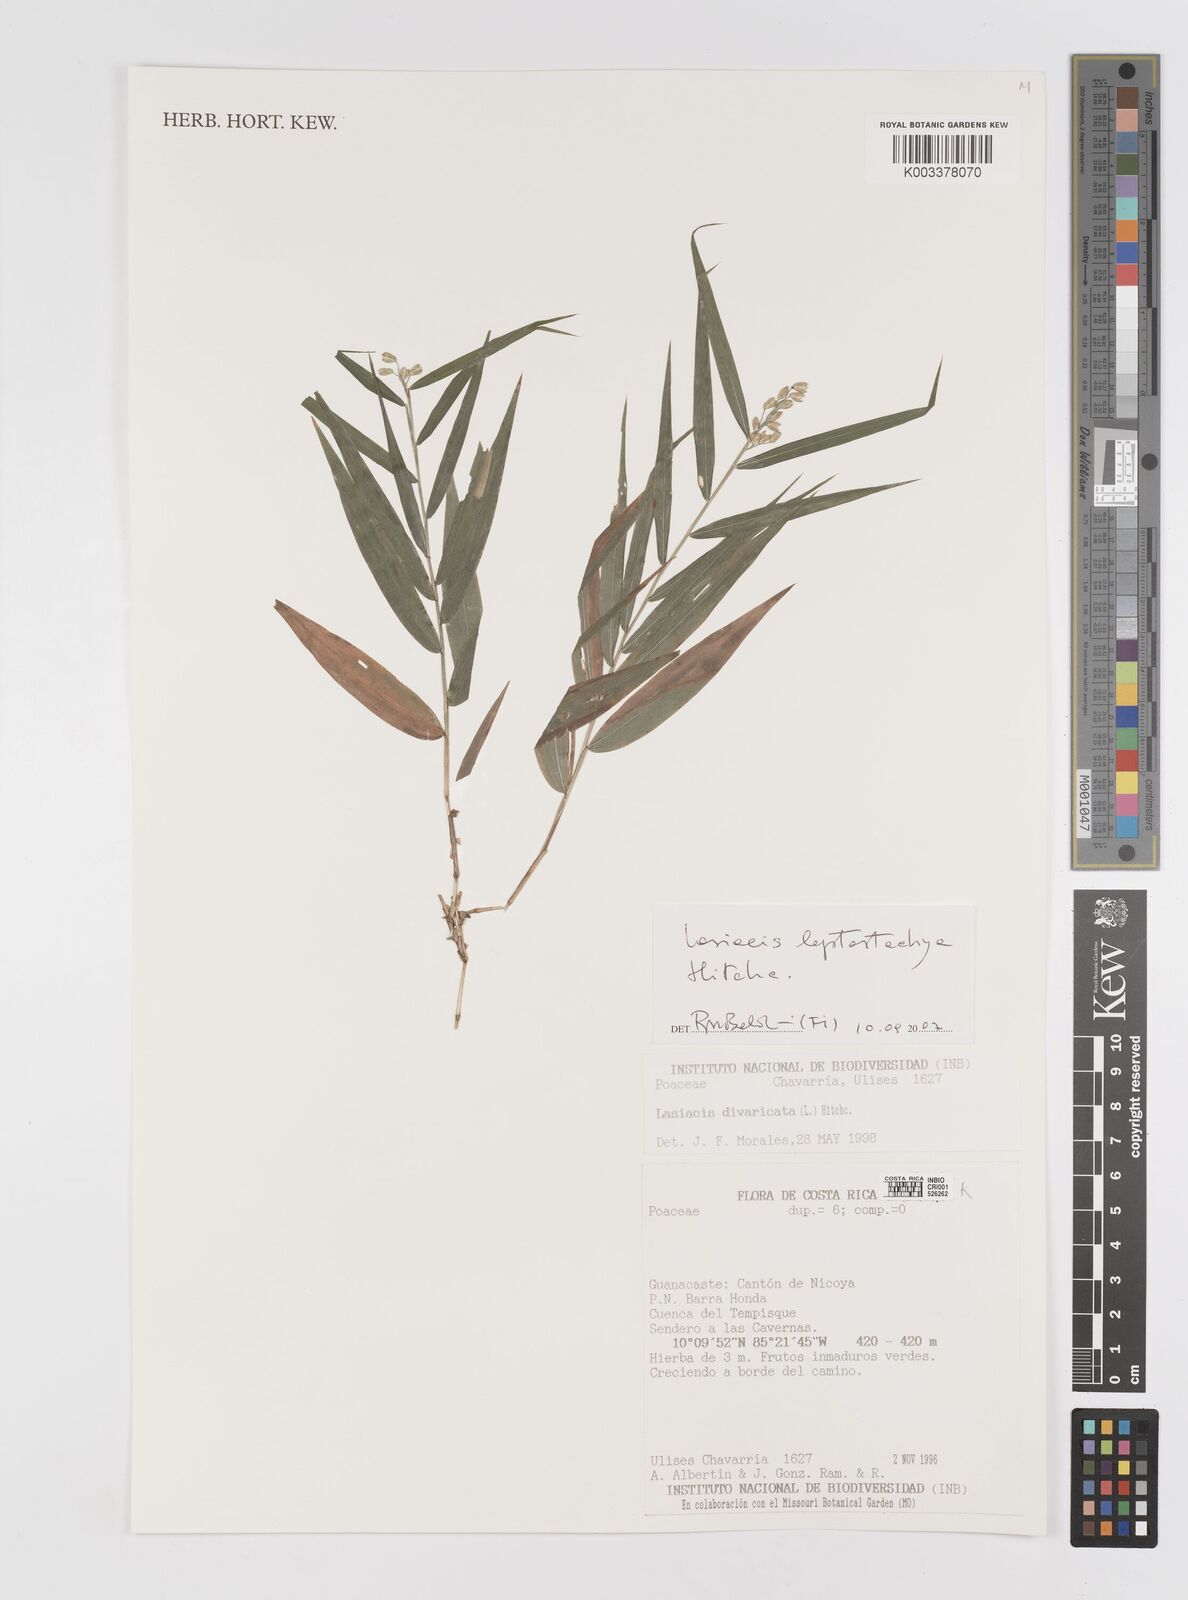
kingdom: Plantae
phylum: Tracheophyta
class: Liliopsida
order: Poales
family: Poaceae
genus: Lasiacis
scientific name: Lasiacis divaricata
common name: Smallcane
